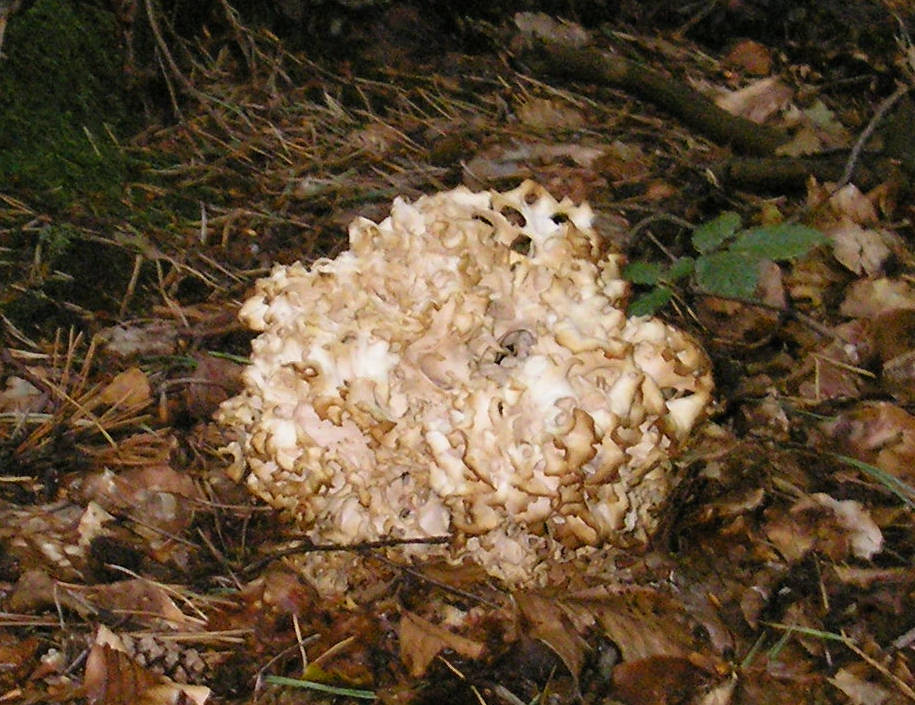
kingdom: Fungi
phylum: Basidiomycota
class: Agaricomycetes
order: Polyporales
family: Sparassidaceae
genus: Sparassis
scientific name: Sparassis crispa
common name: kruset blomkålssvamp
